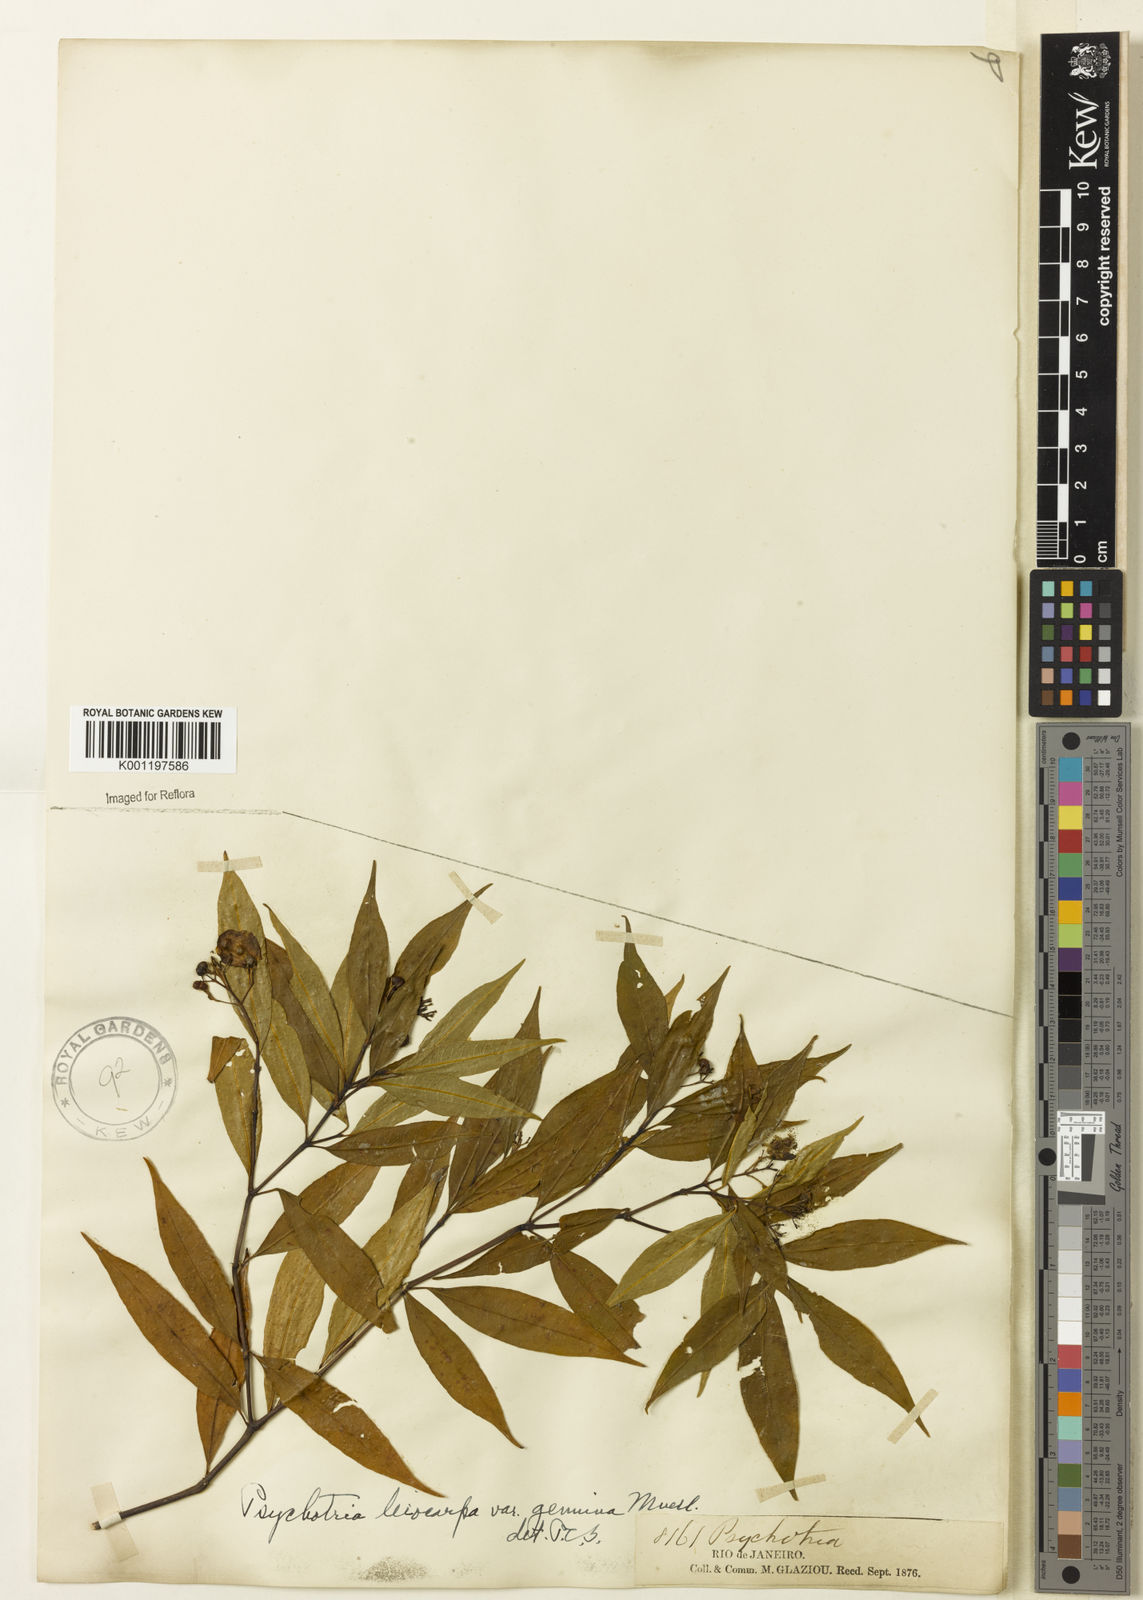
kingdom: Plantae
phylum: Tracheophyta
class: Magnoliopsida
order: Gentianales
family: Rubiaceae
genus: Psychotria
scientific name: Psychotria leiocarpa
